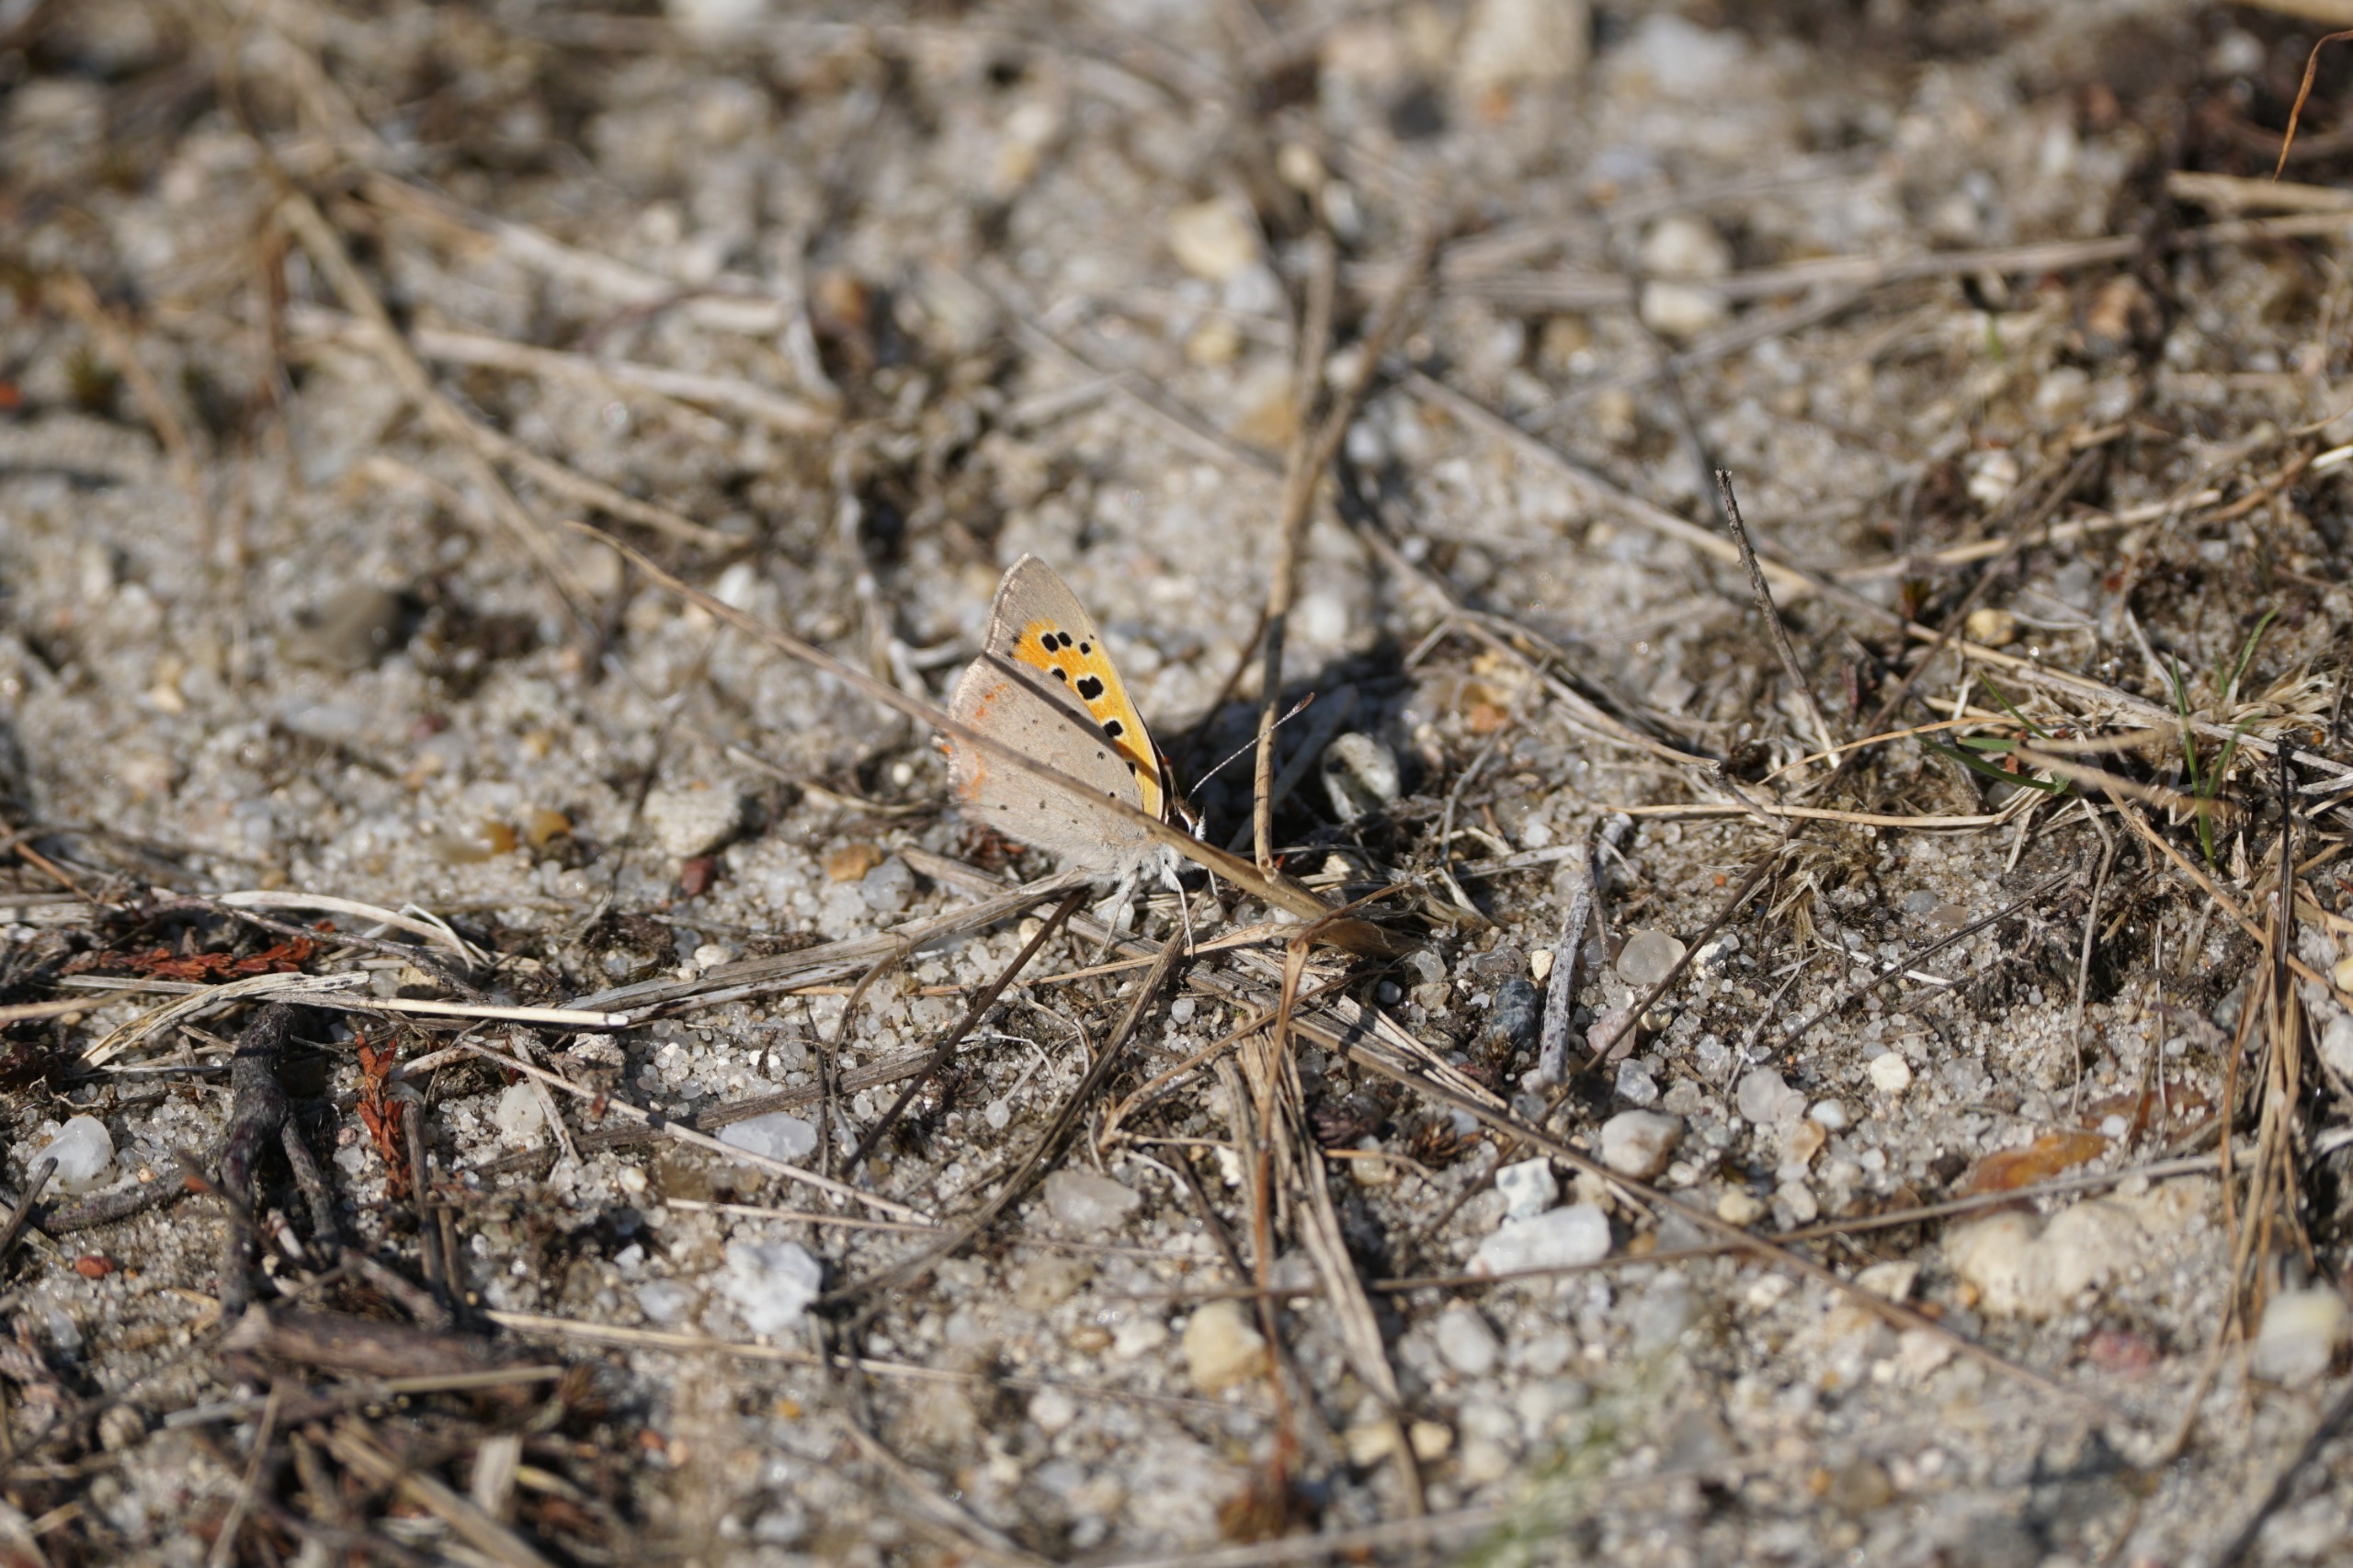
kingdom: Animalia
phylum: Arthropoda
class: Insecta
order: Lepidoptera
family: Lycaenidae
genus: Lycaena
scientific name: Lycaena phlaeas
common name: Lille ildfugl
